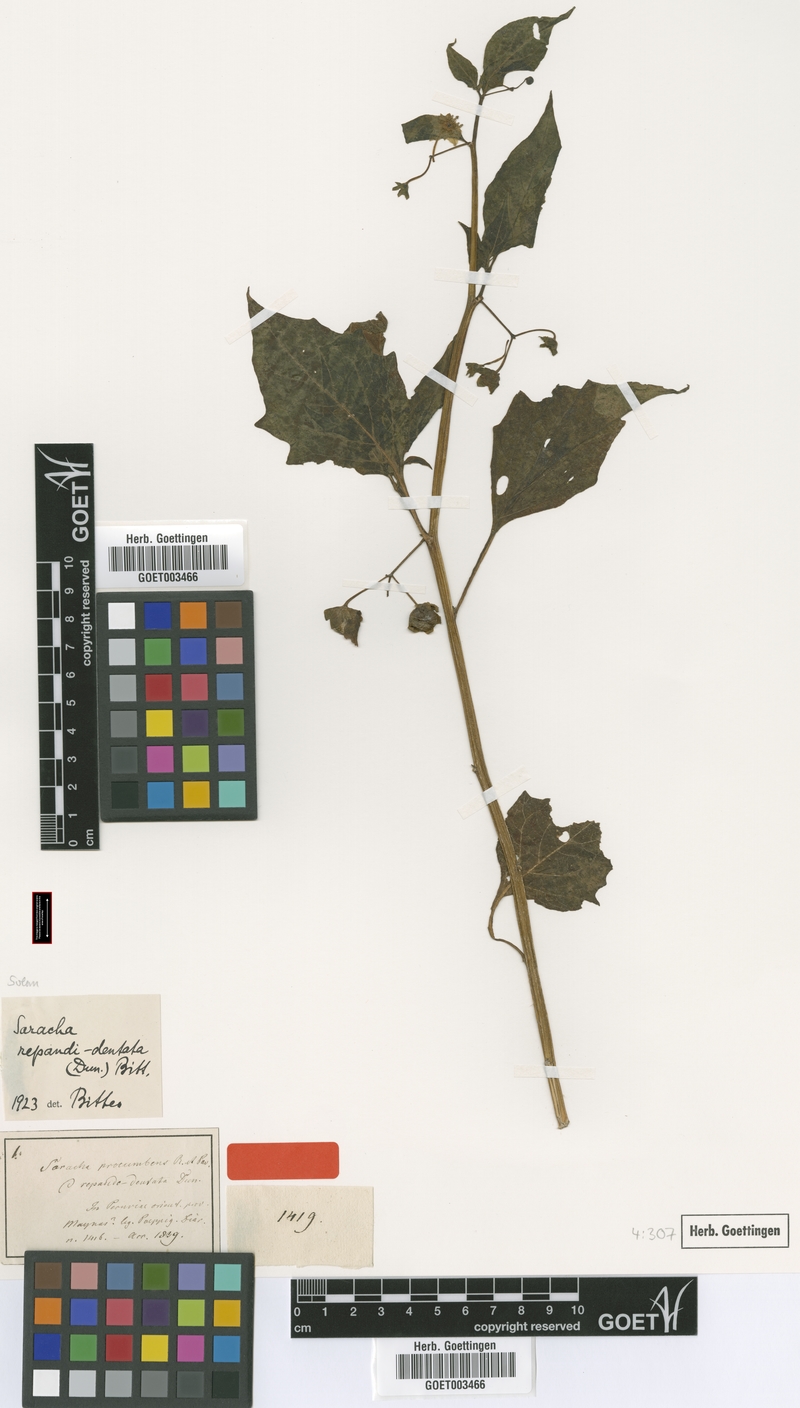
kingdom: Plantae
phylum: Tracheophyta
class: Magnoliopsida
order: Solanales
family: Solanaceae
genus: Jaltomata
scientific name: Jaltomata repandidentata
